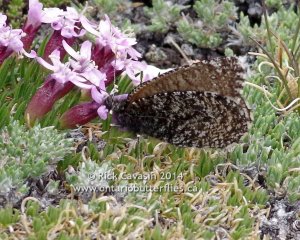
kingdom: Animalia
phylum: Arthropoda
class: Insecta
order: Lepidoptera
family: Nymphalidae
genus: Oeneis
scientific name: Oeneis melissa
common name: Melissa Arctic
